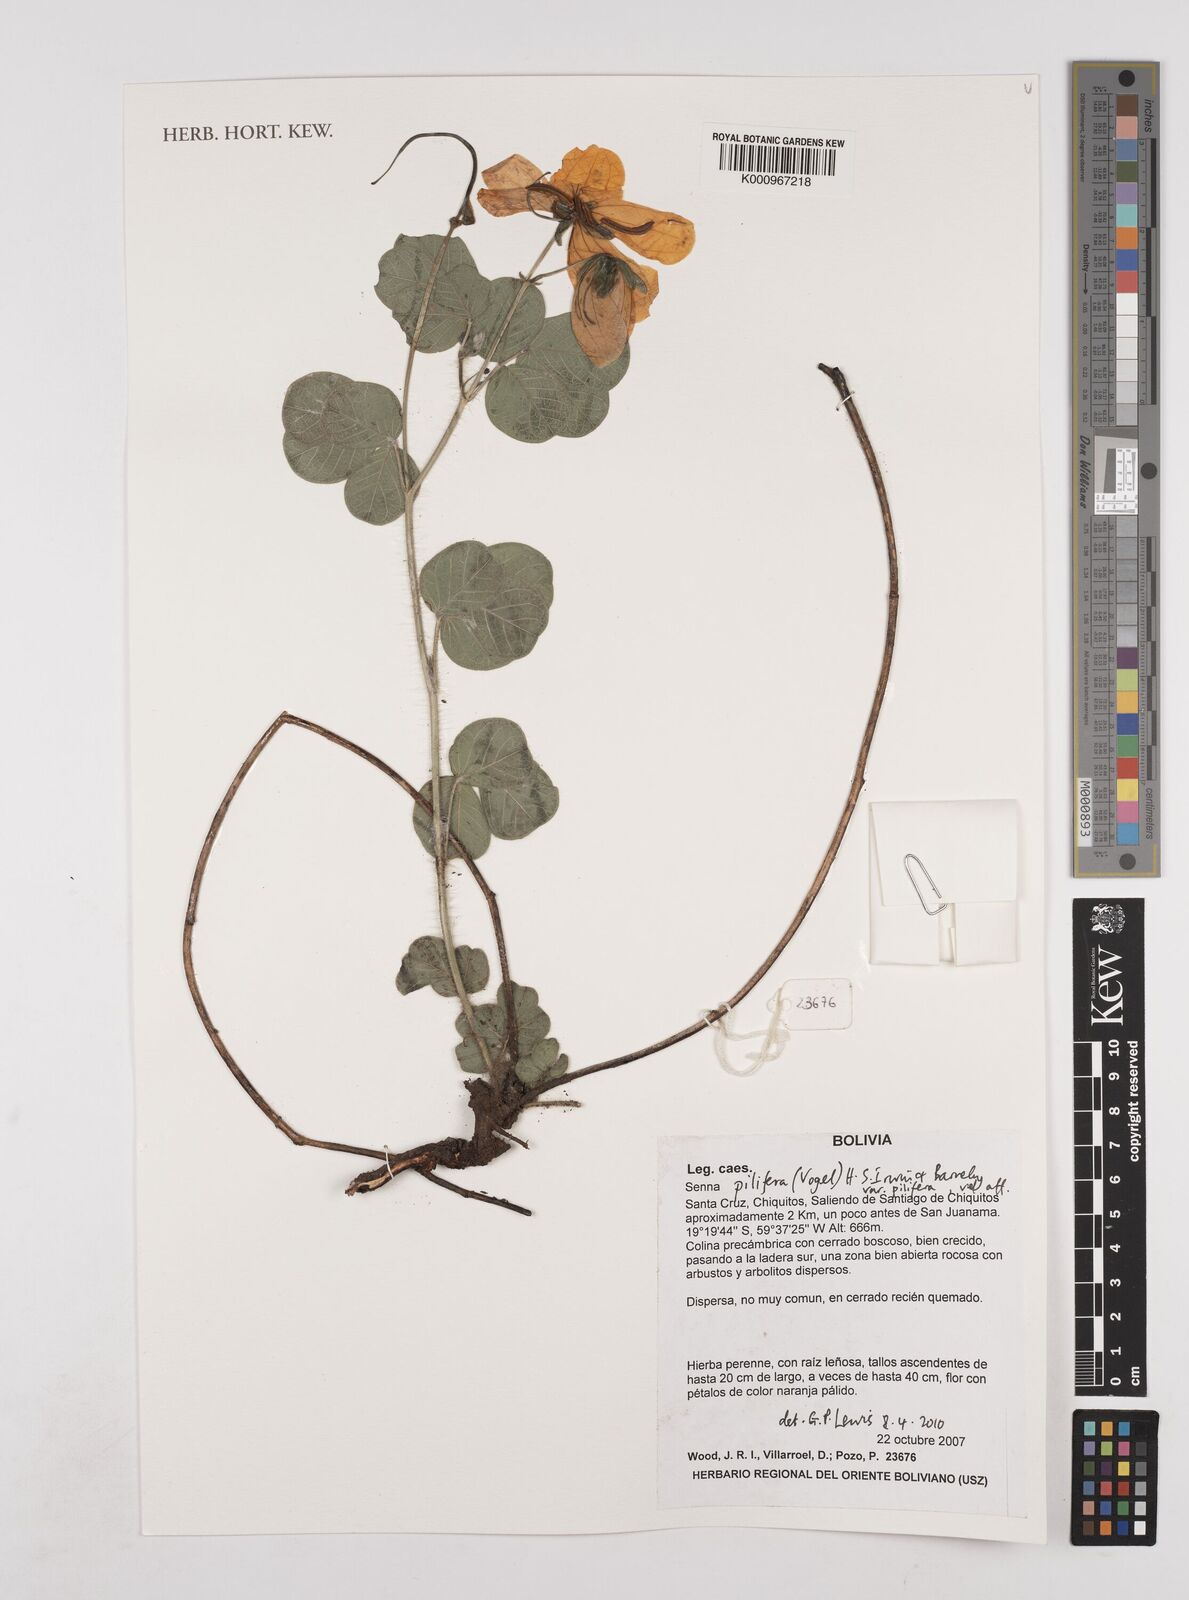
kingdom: Plantae
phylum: Tracheophyta
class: Magnoliopsida
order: Fabales
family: Fabaceae
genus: Senna
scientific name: Senna pilifera
